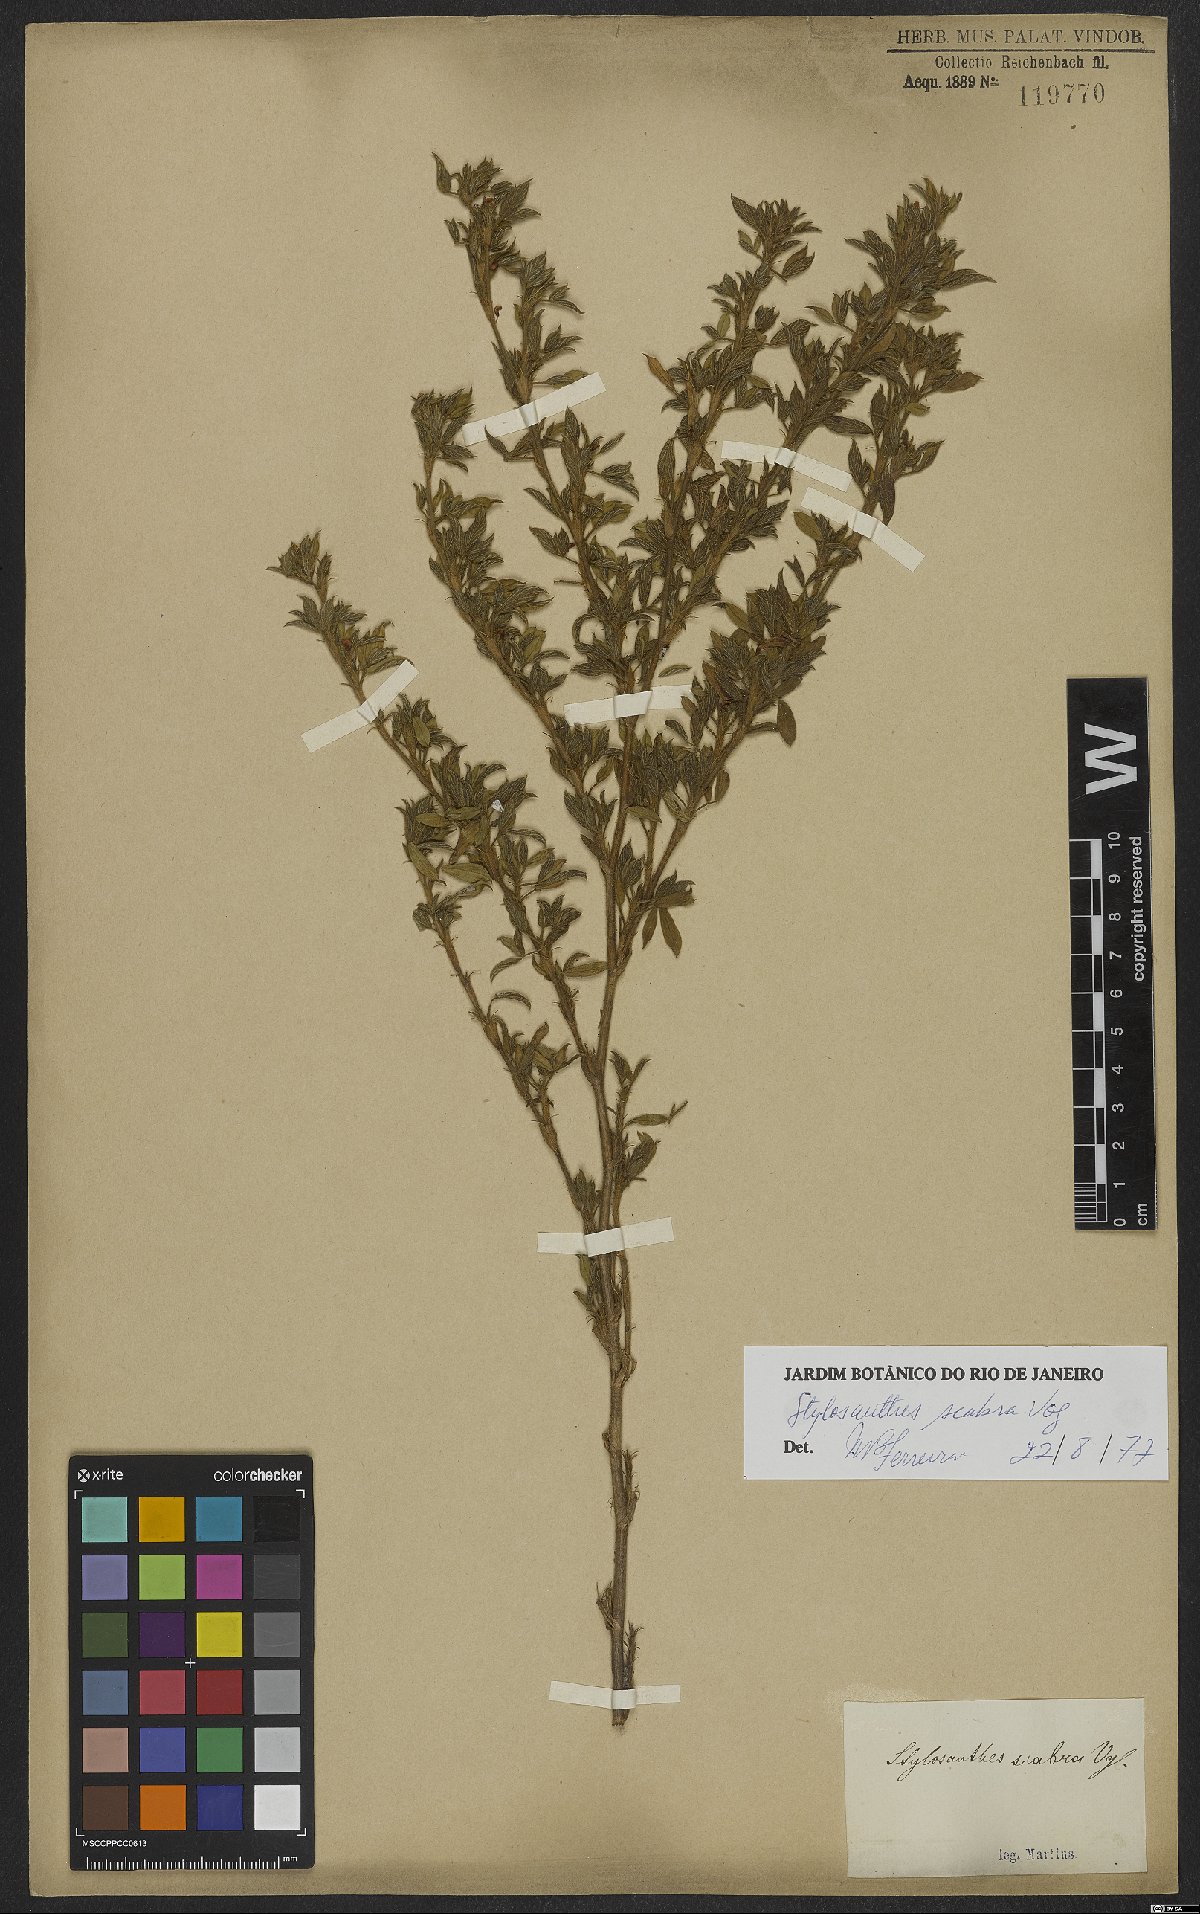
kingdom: Plantae
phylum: Tracheophyta
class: Magnoliopsida
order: Fabales
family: Fabaceae
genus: Stylosanthes
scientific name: Stylosanthes scabra
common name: Pencilflower
